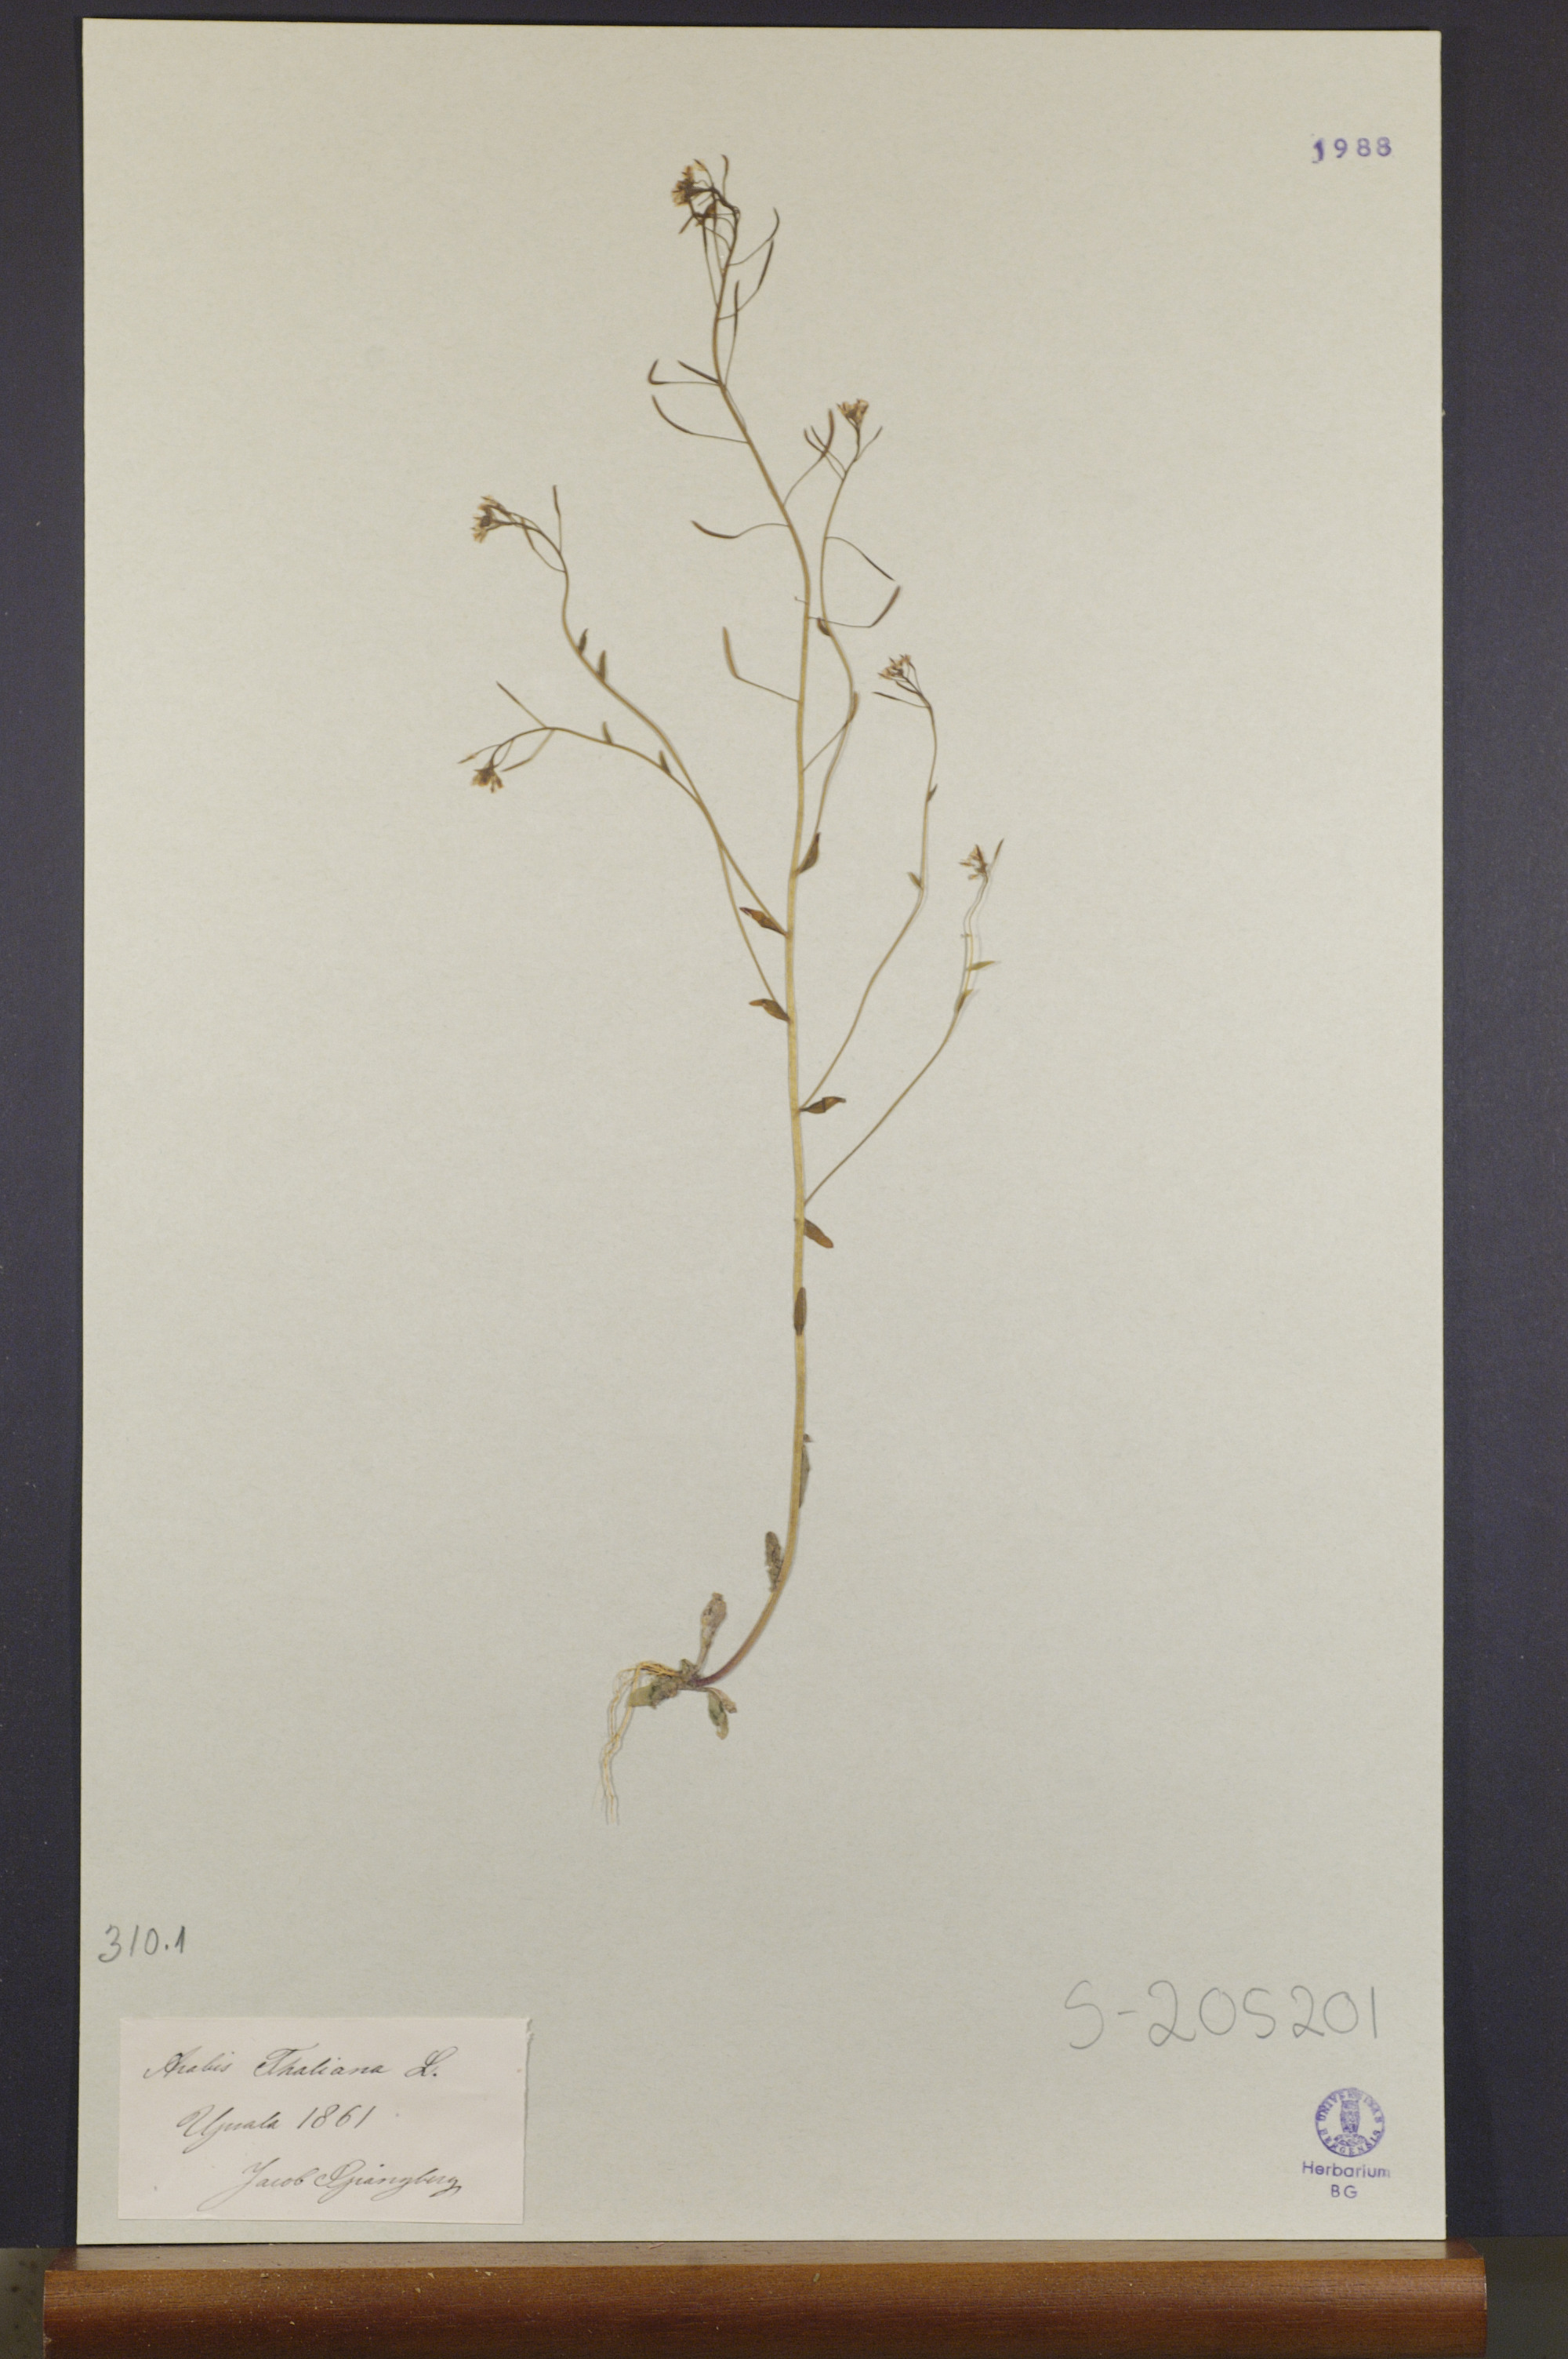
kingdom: Plantae
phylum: Tracheophyta
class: Magnoliopsida
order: Brassicales
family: Brassicaceae
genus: Arabidopsis
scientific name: Arabidopsis thaliana
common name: Thale cress
